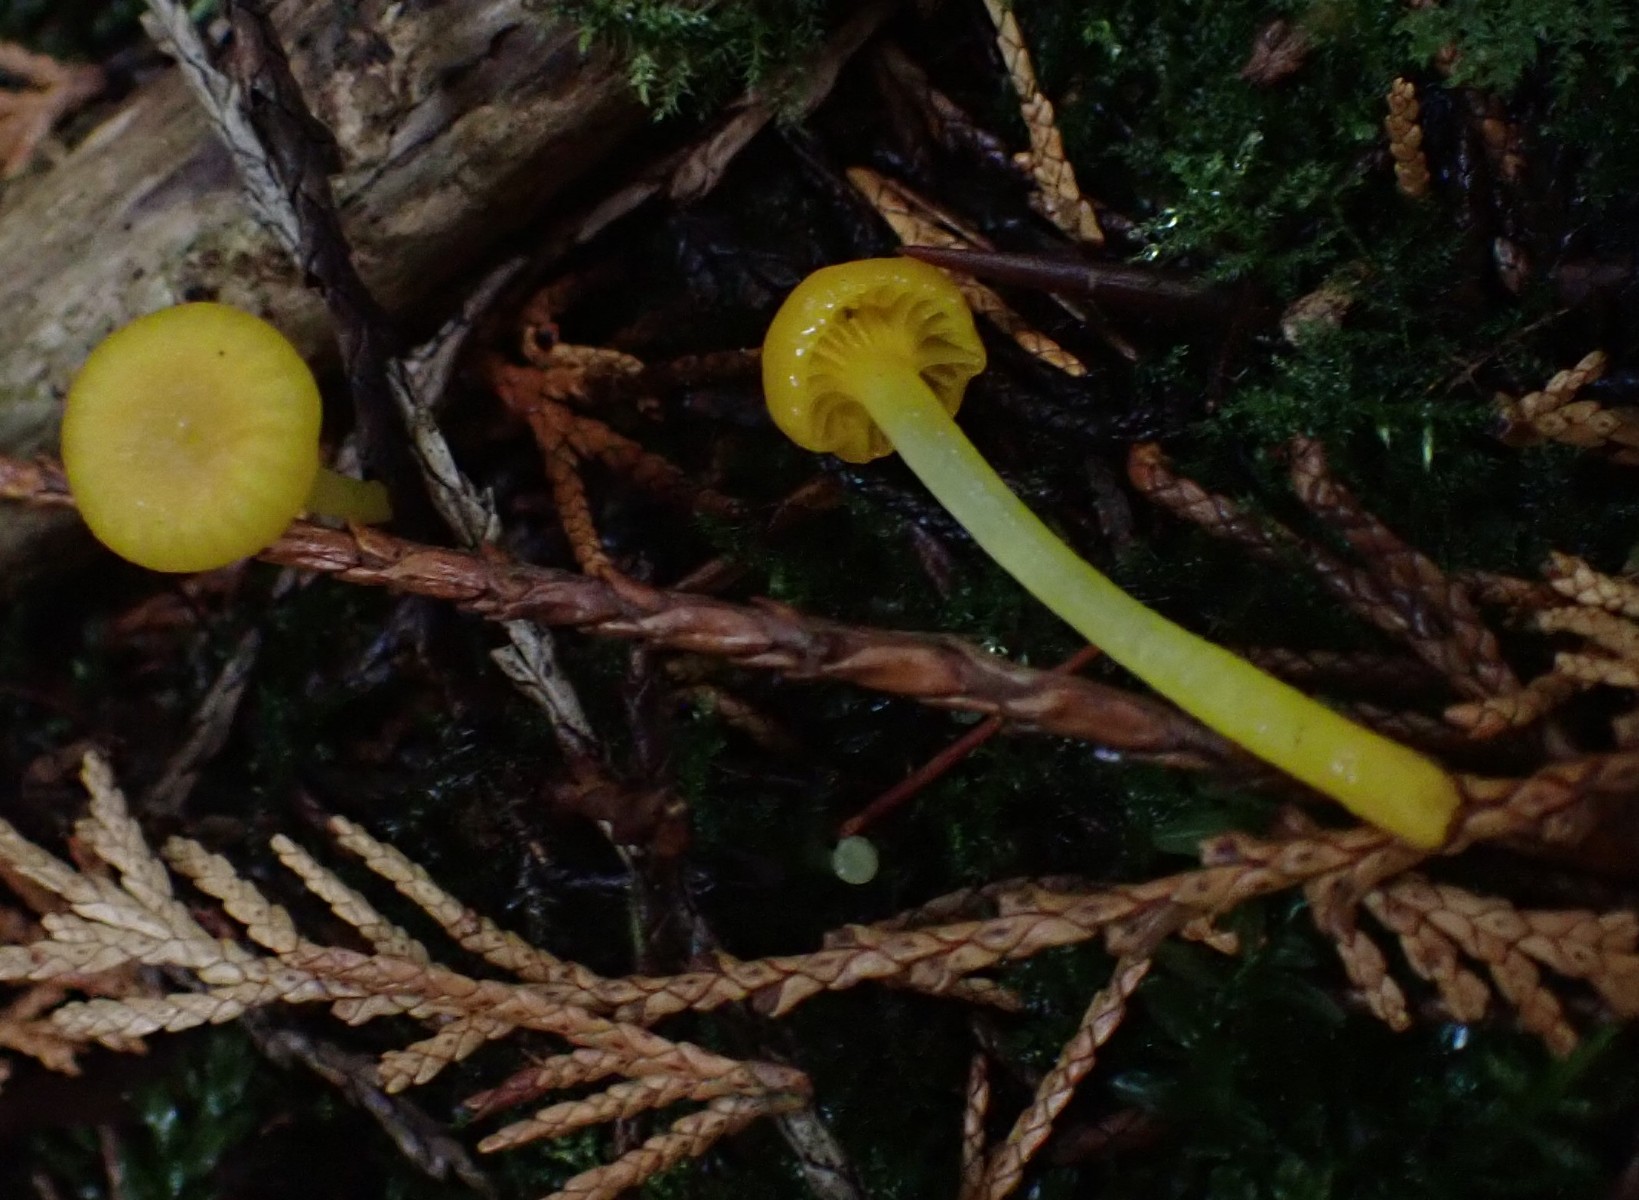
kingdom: Fungi
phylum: Basidiomycota
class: Agaricomycetes
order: Agaricales
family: Hygrophoraceae
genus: Gloioxanthomyces
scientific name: Gloioxanthomyces vitellinus
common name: kromgul vokshat
